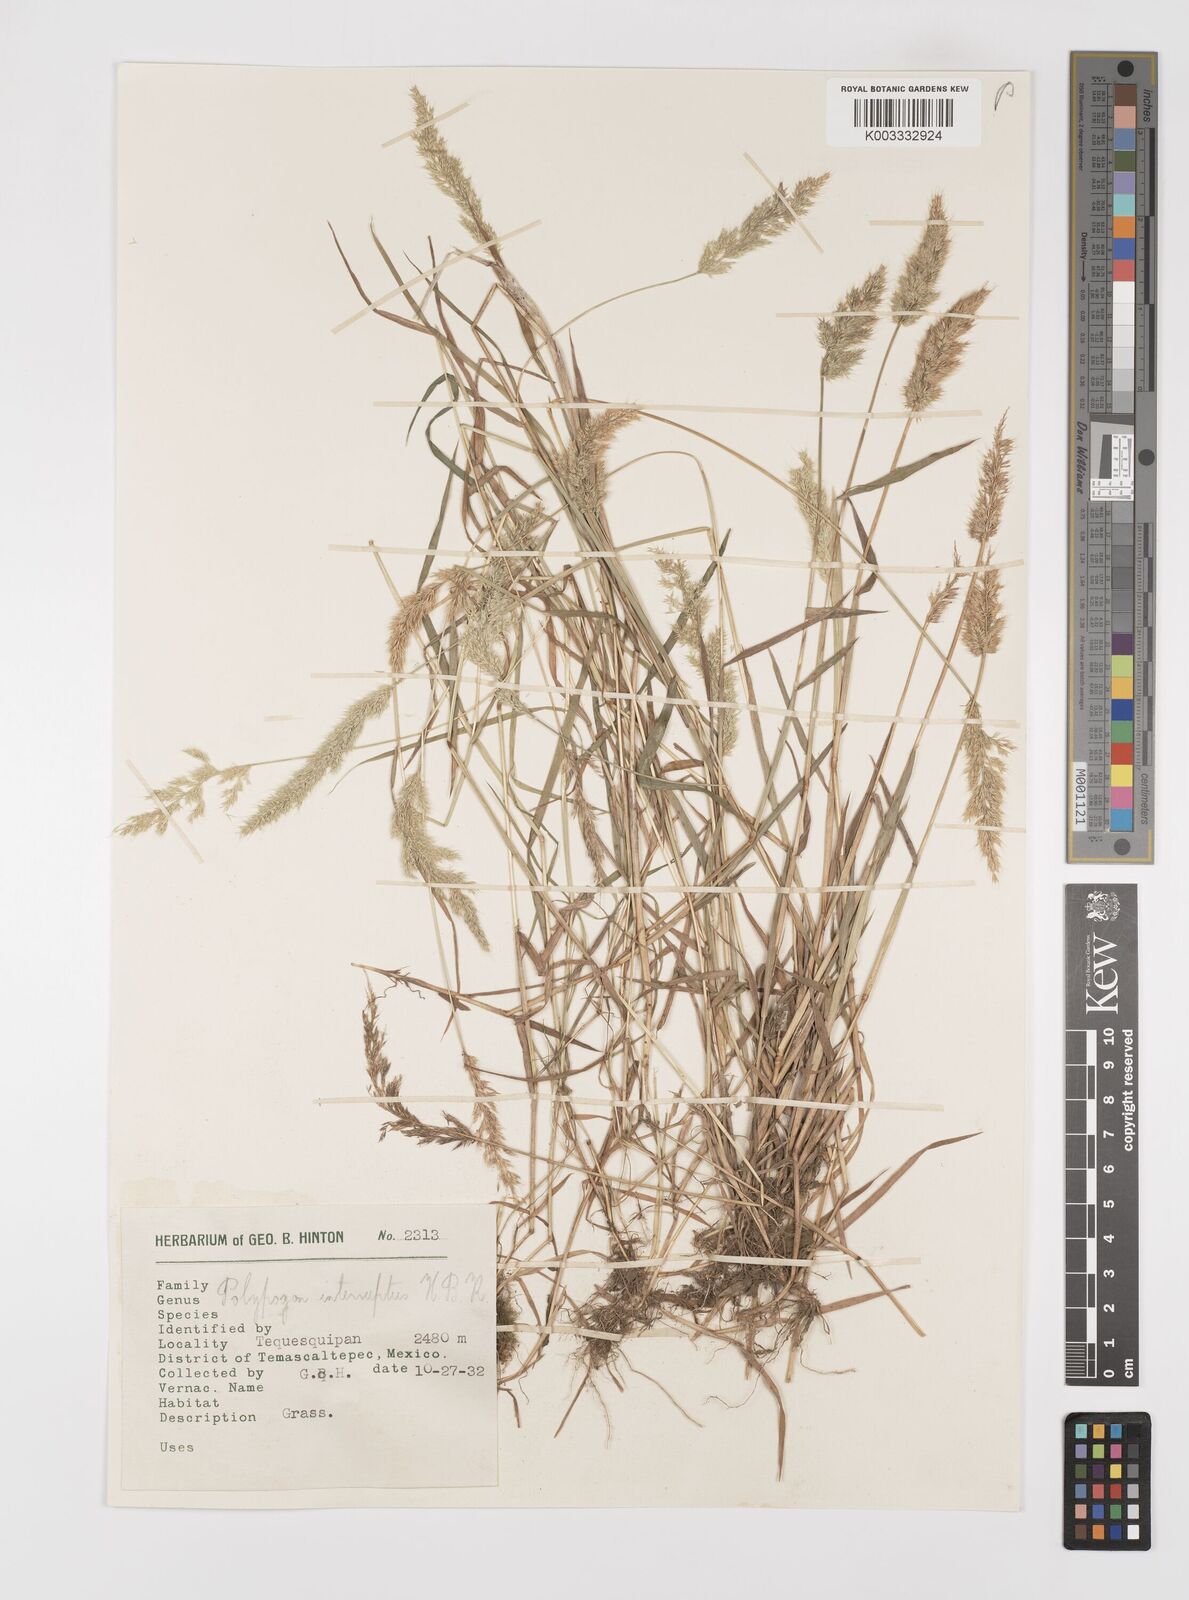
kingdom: Plantae
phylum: Tracheophyta
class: Liliopsida
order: Poales
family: Poaceae
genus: Polypogon
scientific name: Polypogon interruptus
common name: Ditch polypogon
